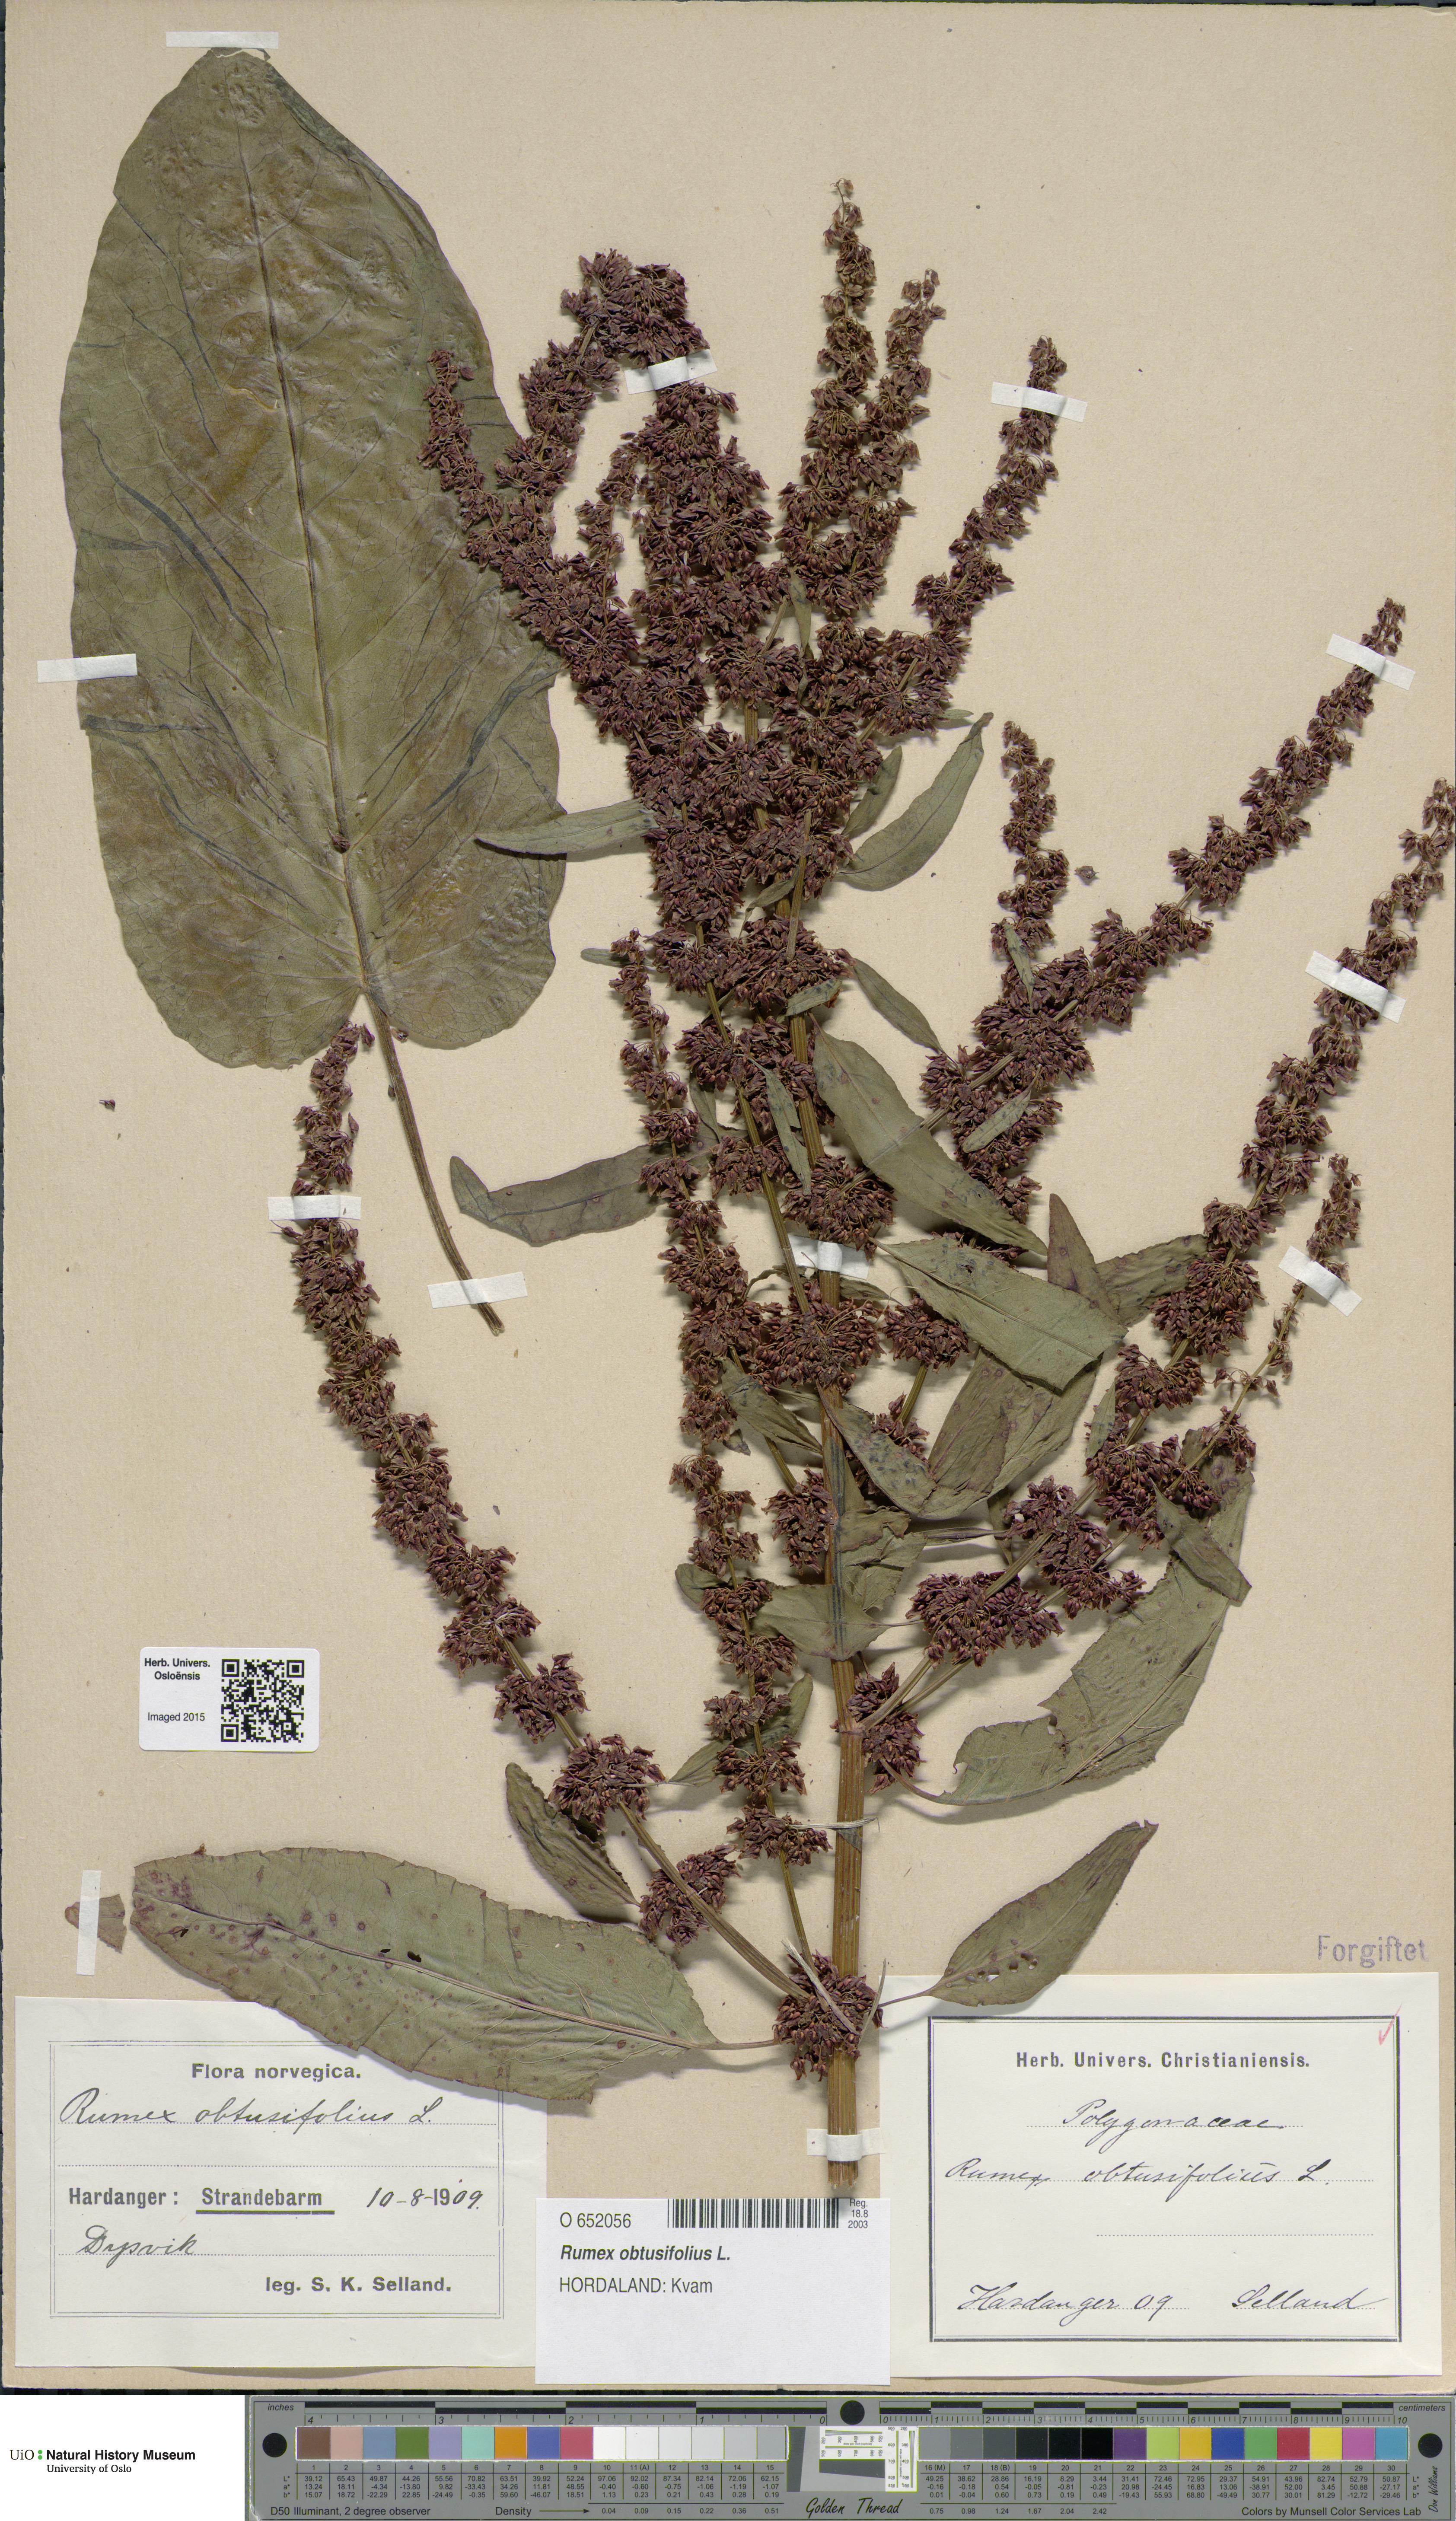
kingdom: Plantae
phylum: Tracheophyta
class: Magnoliopsida
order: Caryophyllales
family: Polygonaceae
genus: Rumex
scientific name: Rumex obtusifolius
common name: Bitter dock
